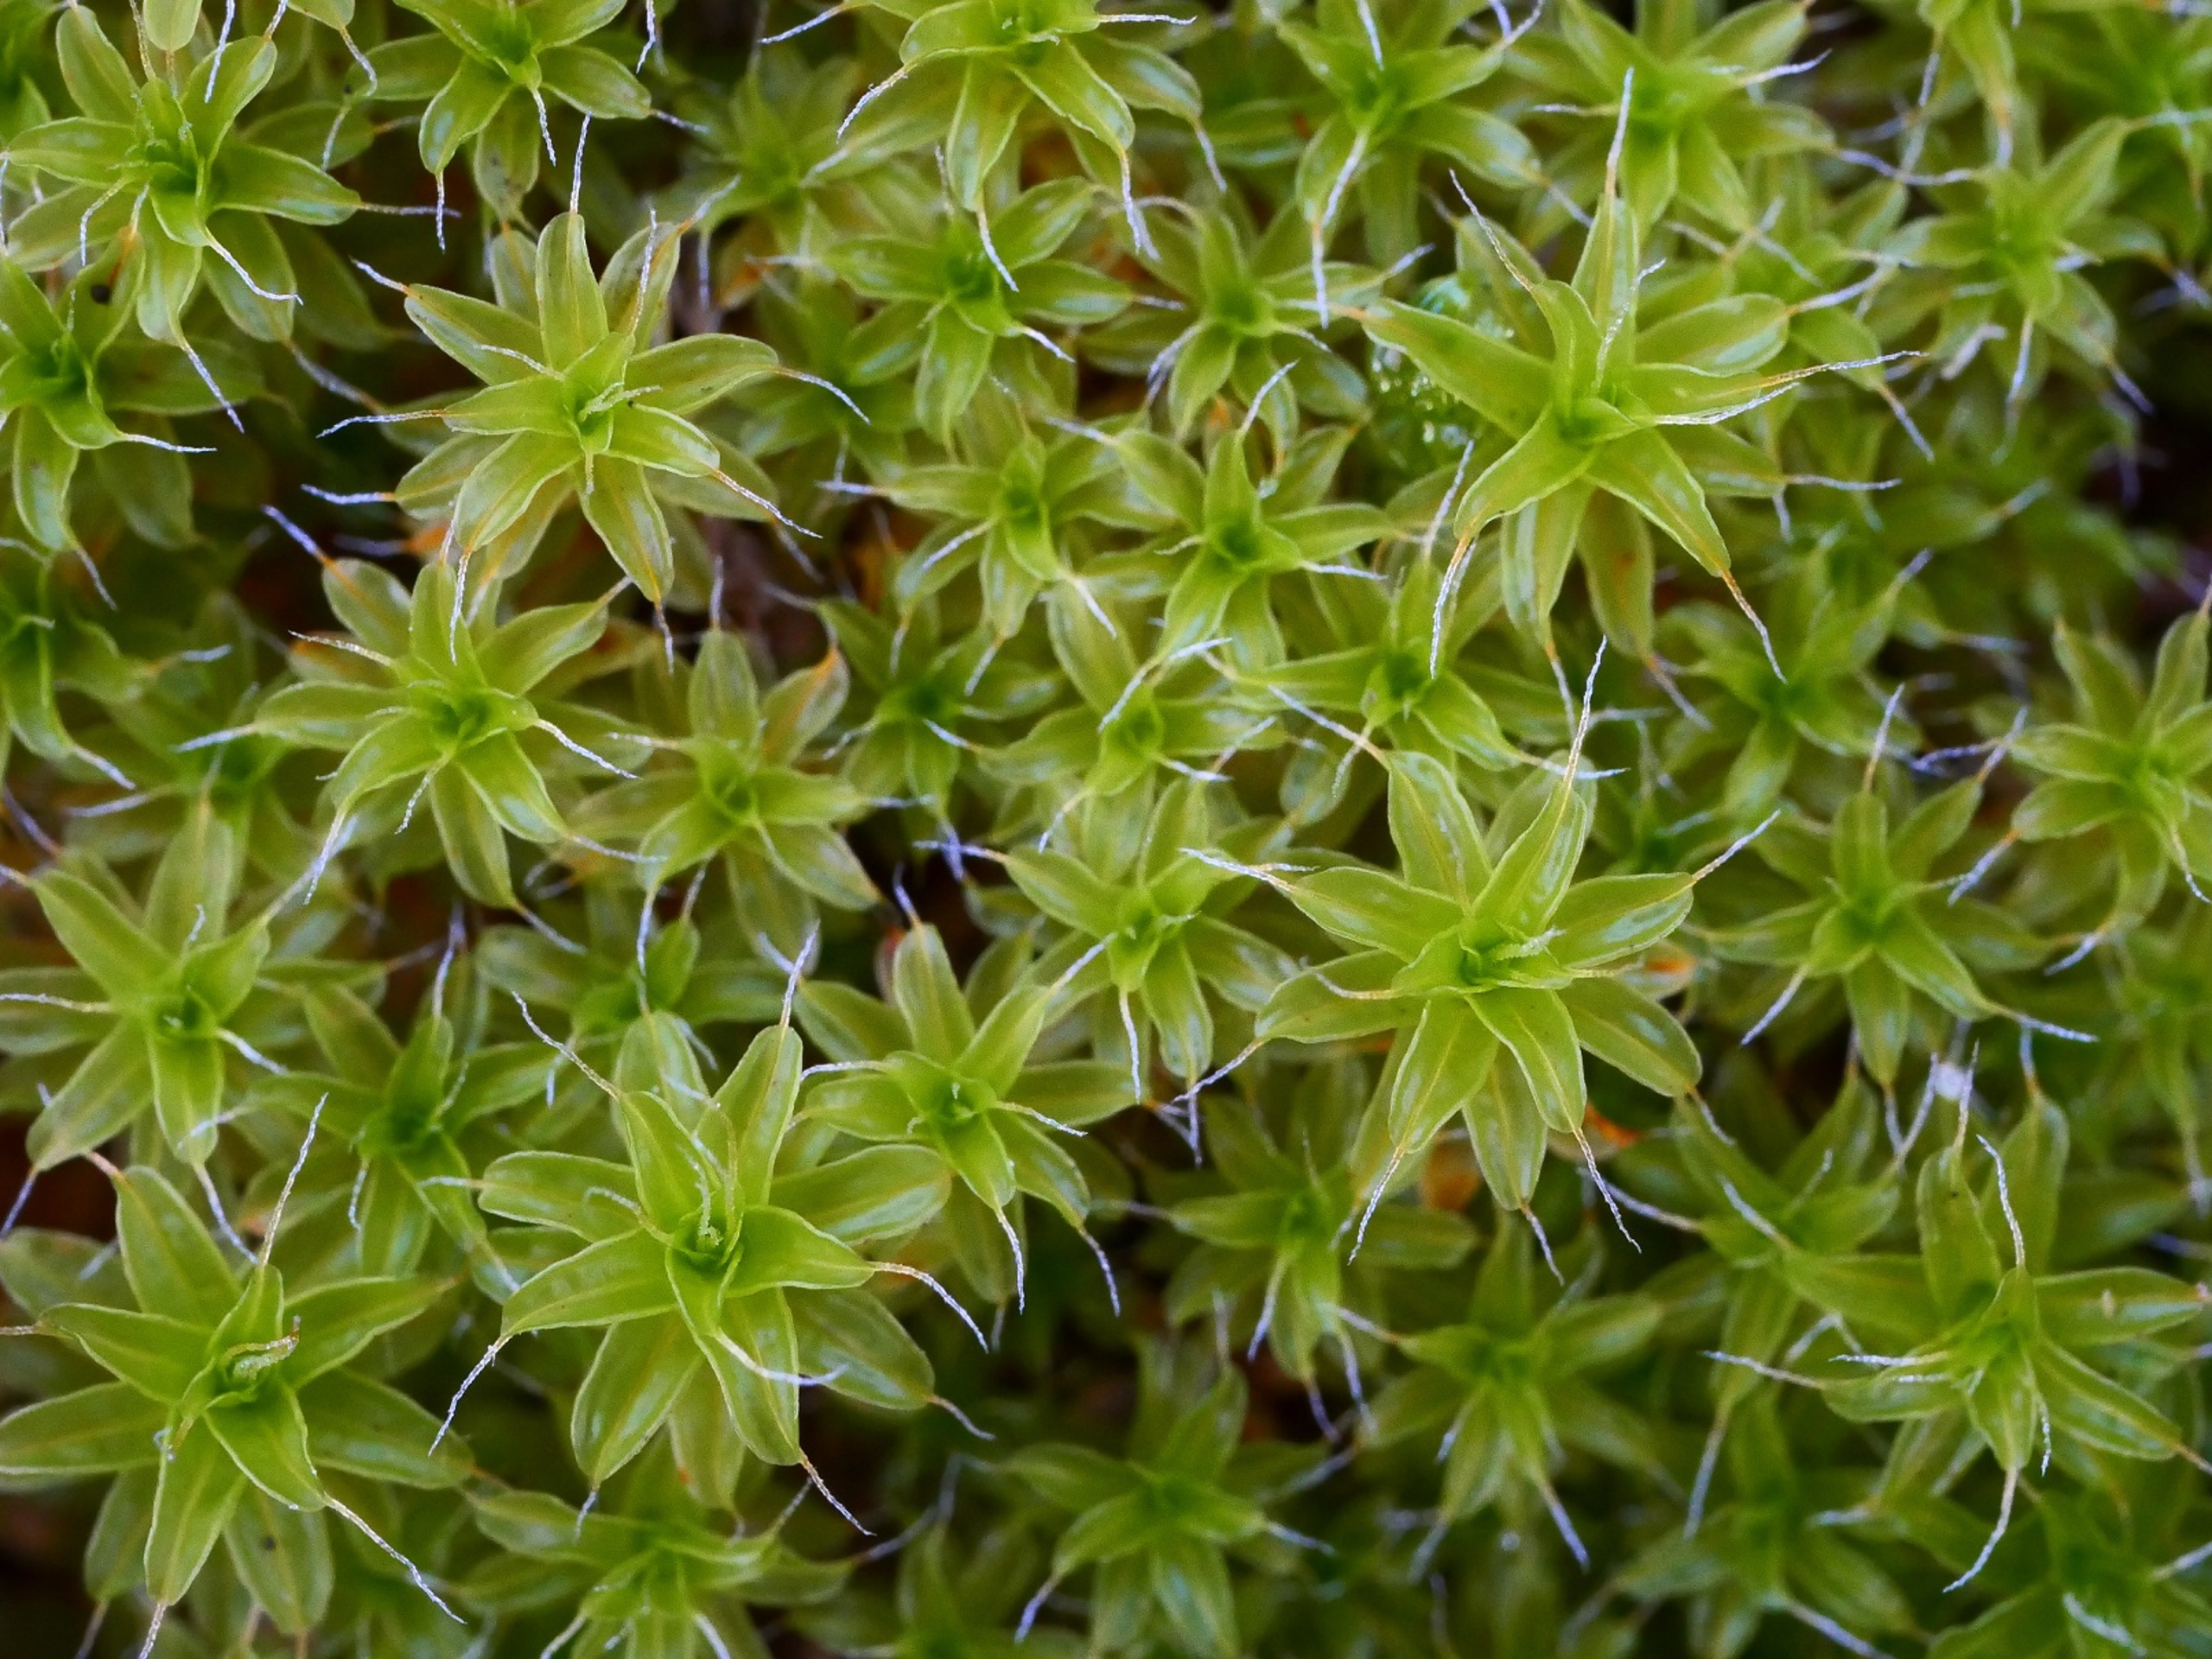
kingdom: Plantae
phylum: Bryophyta
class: Bryopsida
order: Pottiales
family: Pottiaceae
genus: Syntrichia
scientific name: Syntrichia ruralis
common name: Tag-hårstjerne
